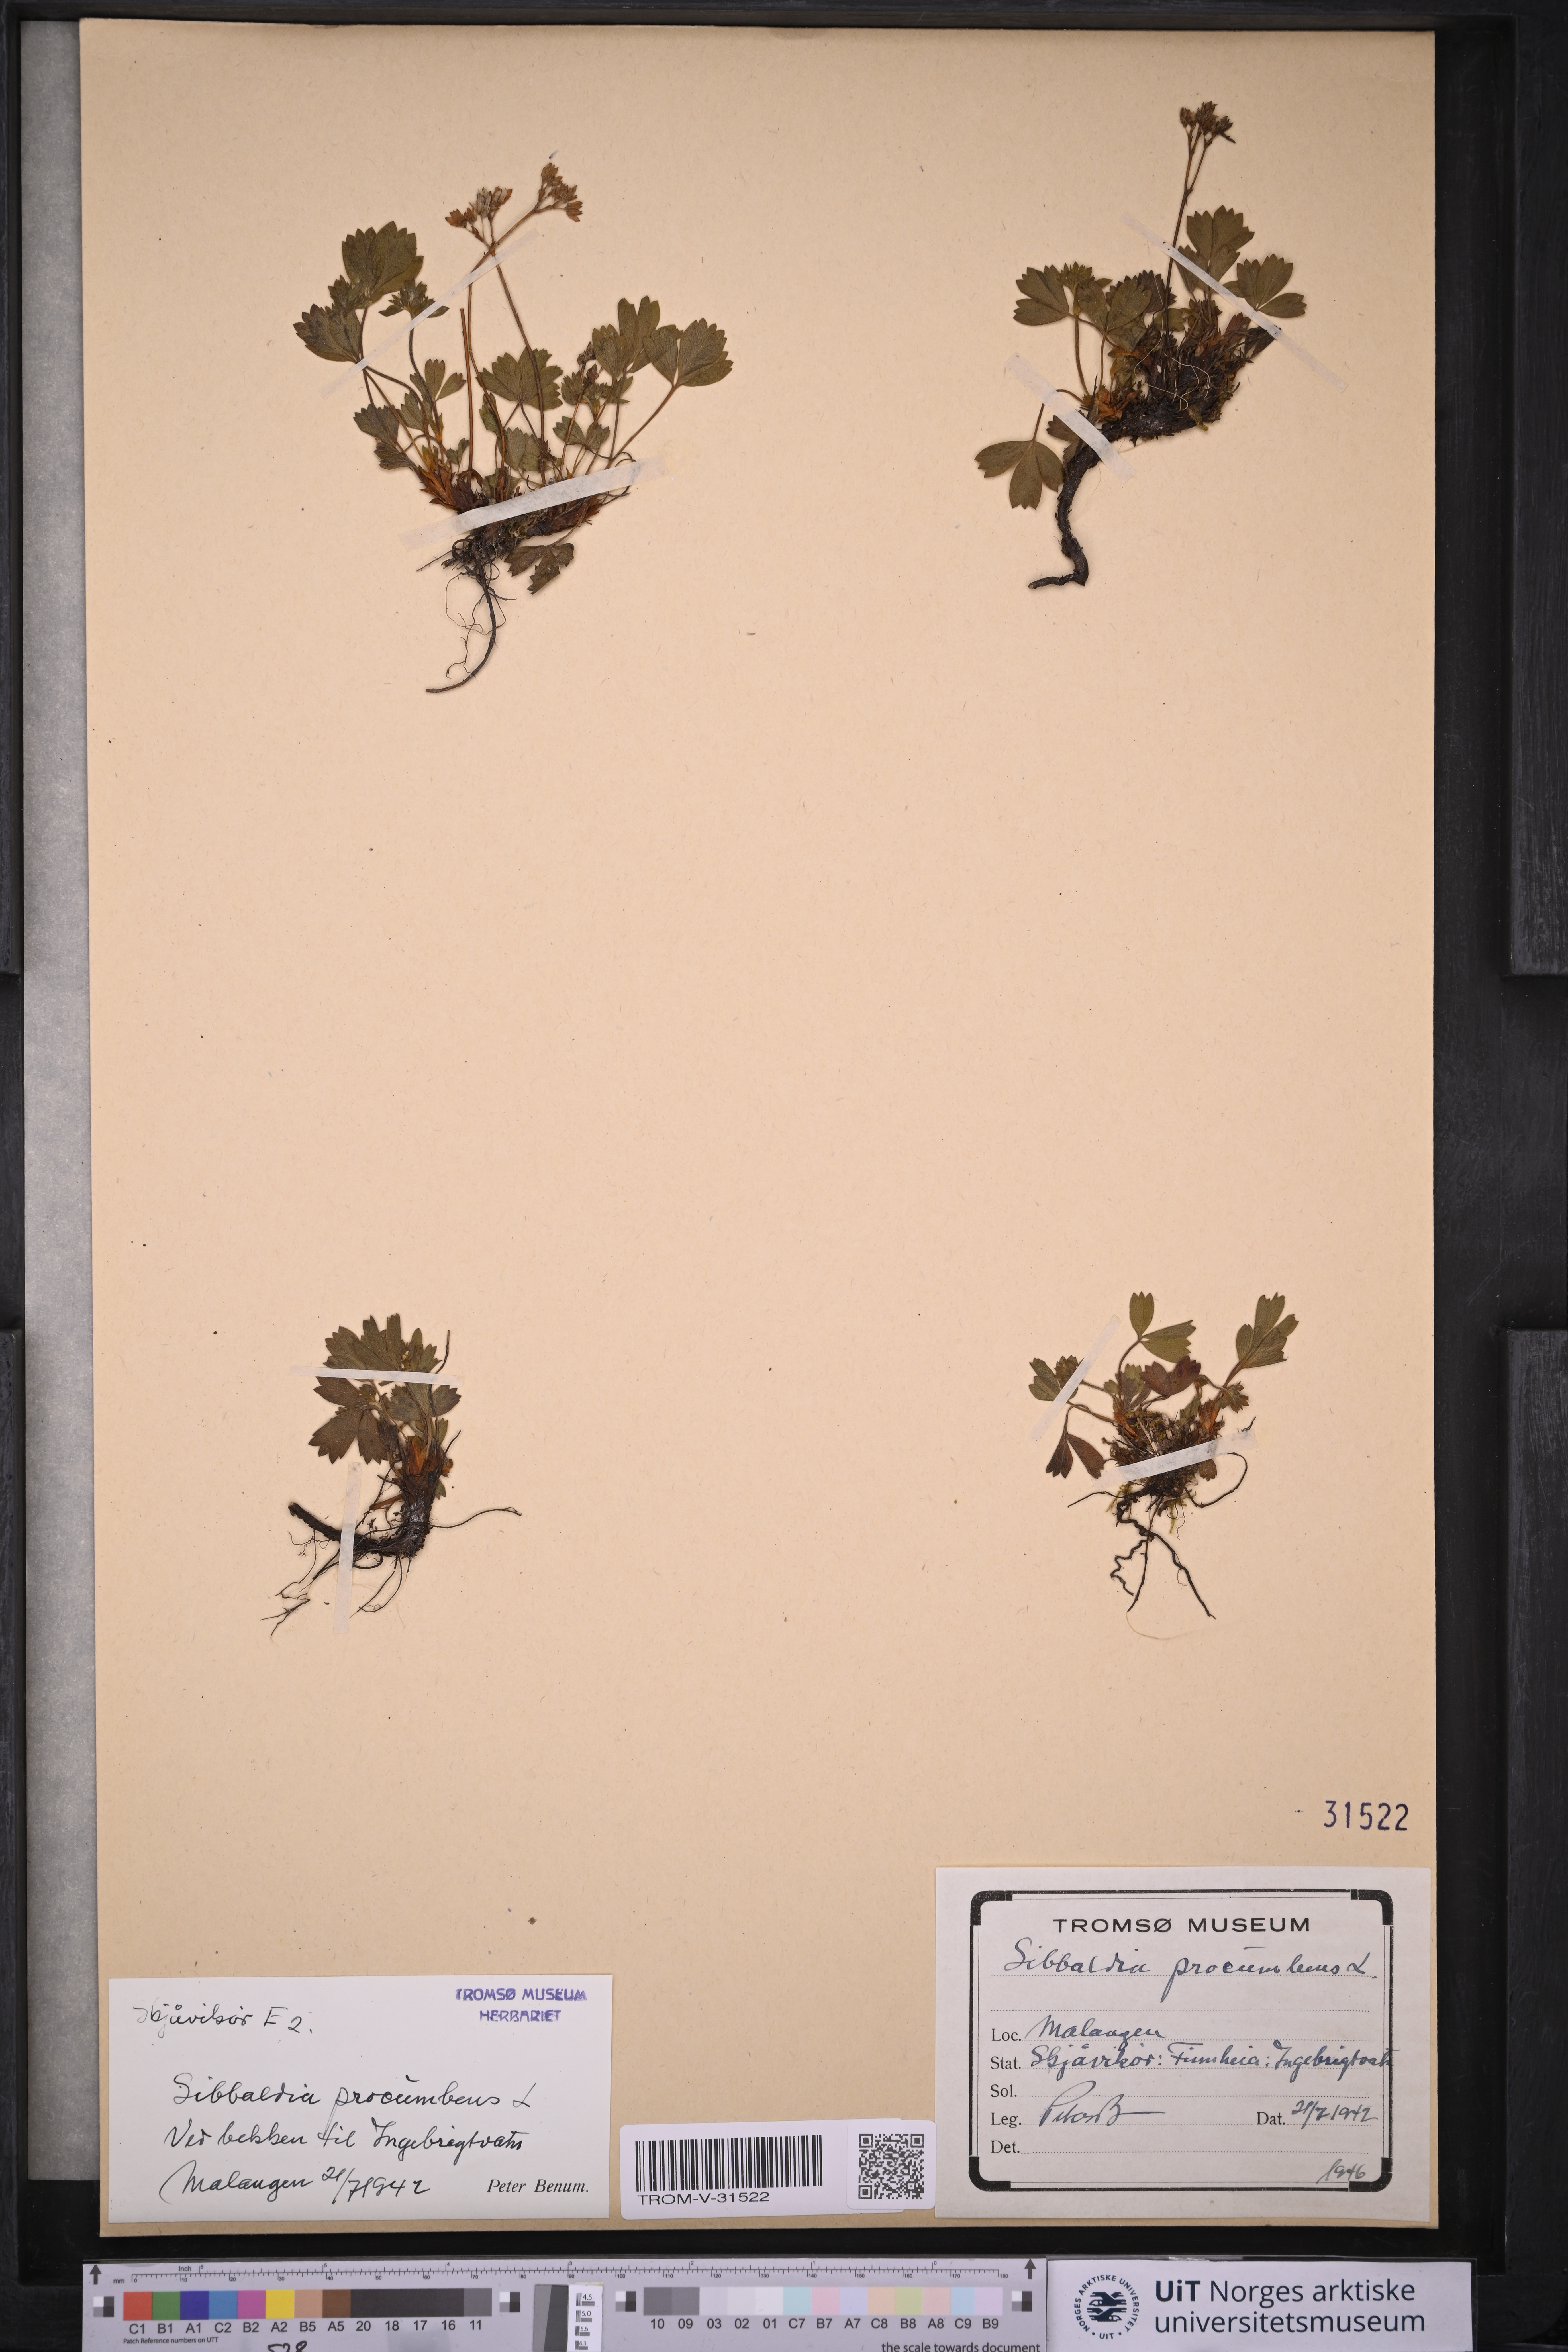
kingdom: Plantae
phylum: Tracheophyta
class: Magnoliopsida
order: Rosales
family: Rosaceae
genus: Sibbaldia
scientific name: Sibbaldia procumbens
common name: Creeping sibbaldia
